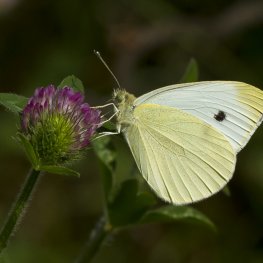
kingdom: Animalia
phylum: Arthropoda
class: Insecta
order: Lepidoptera
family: Pieridae
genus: Pieris
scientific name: Pieris rapae
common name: Cabbage White
